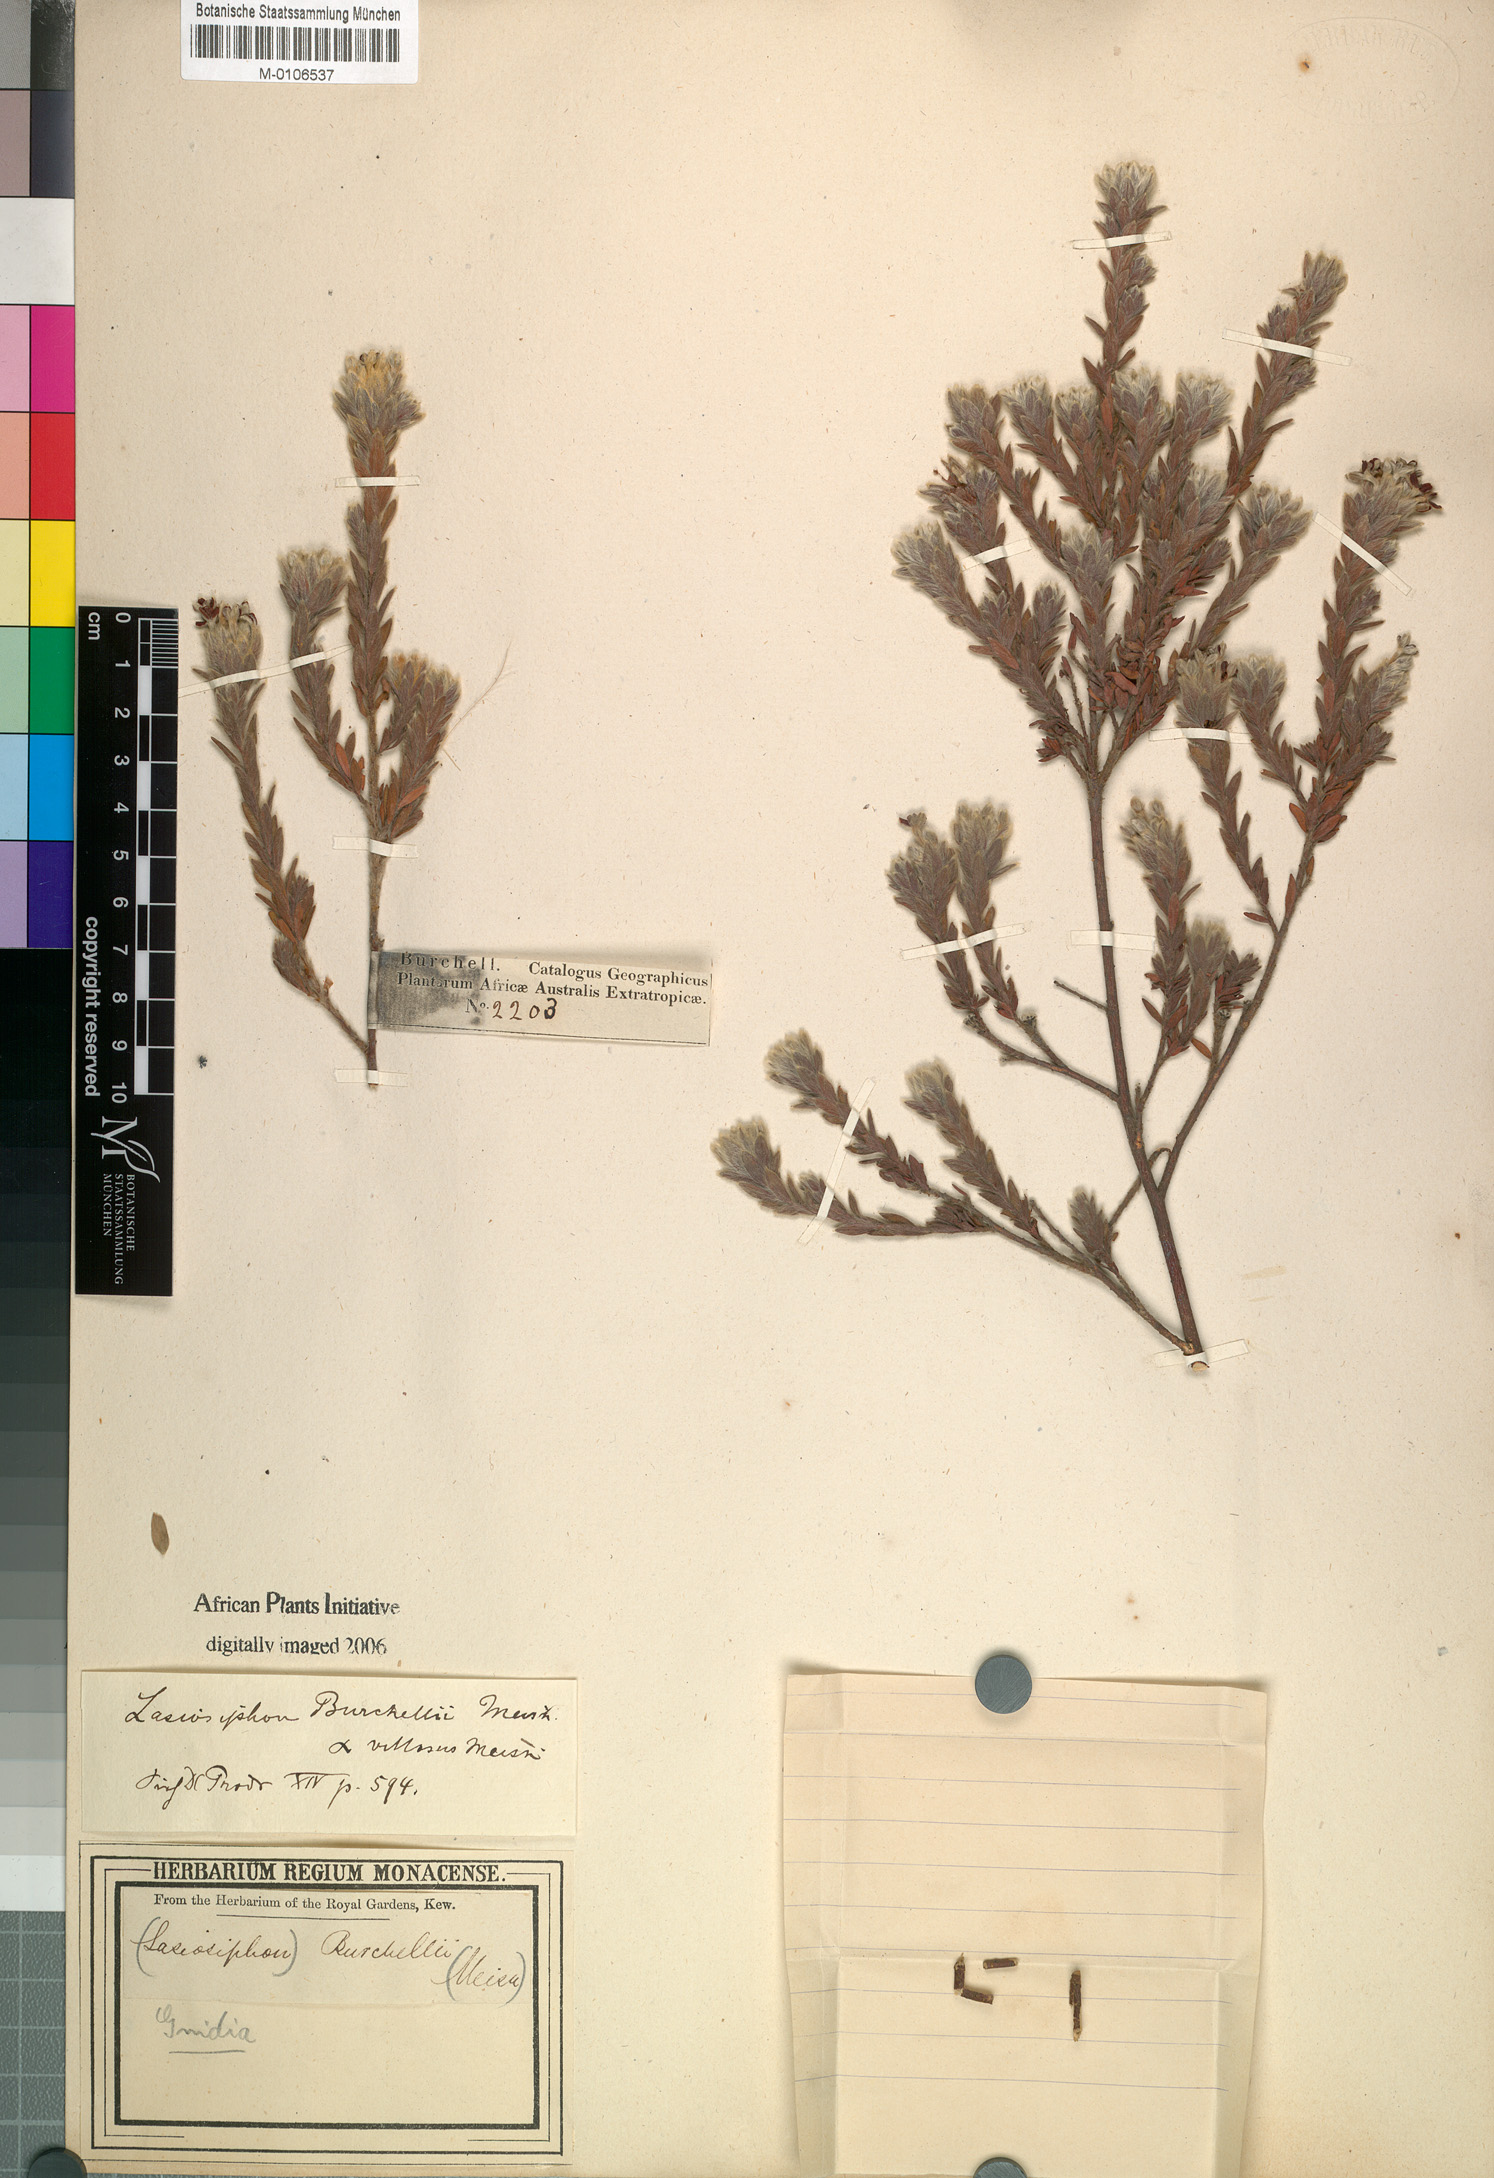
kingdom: Plantae
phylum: Tracheophyta
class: Magnoliopsida
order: Malvales
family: Thymelaeaceae
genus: Gnidia
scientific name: Gnidia burchellii
